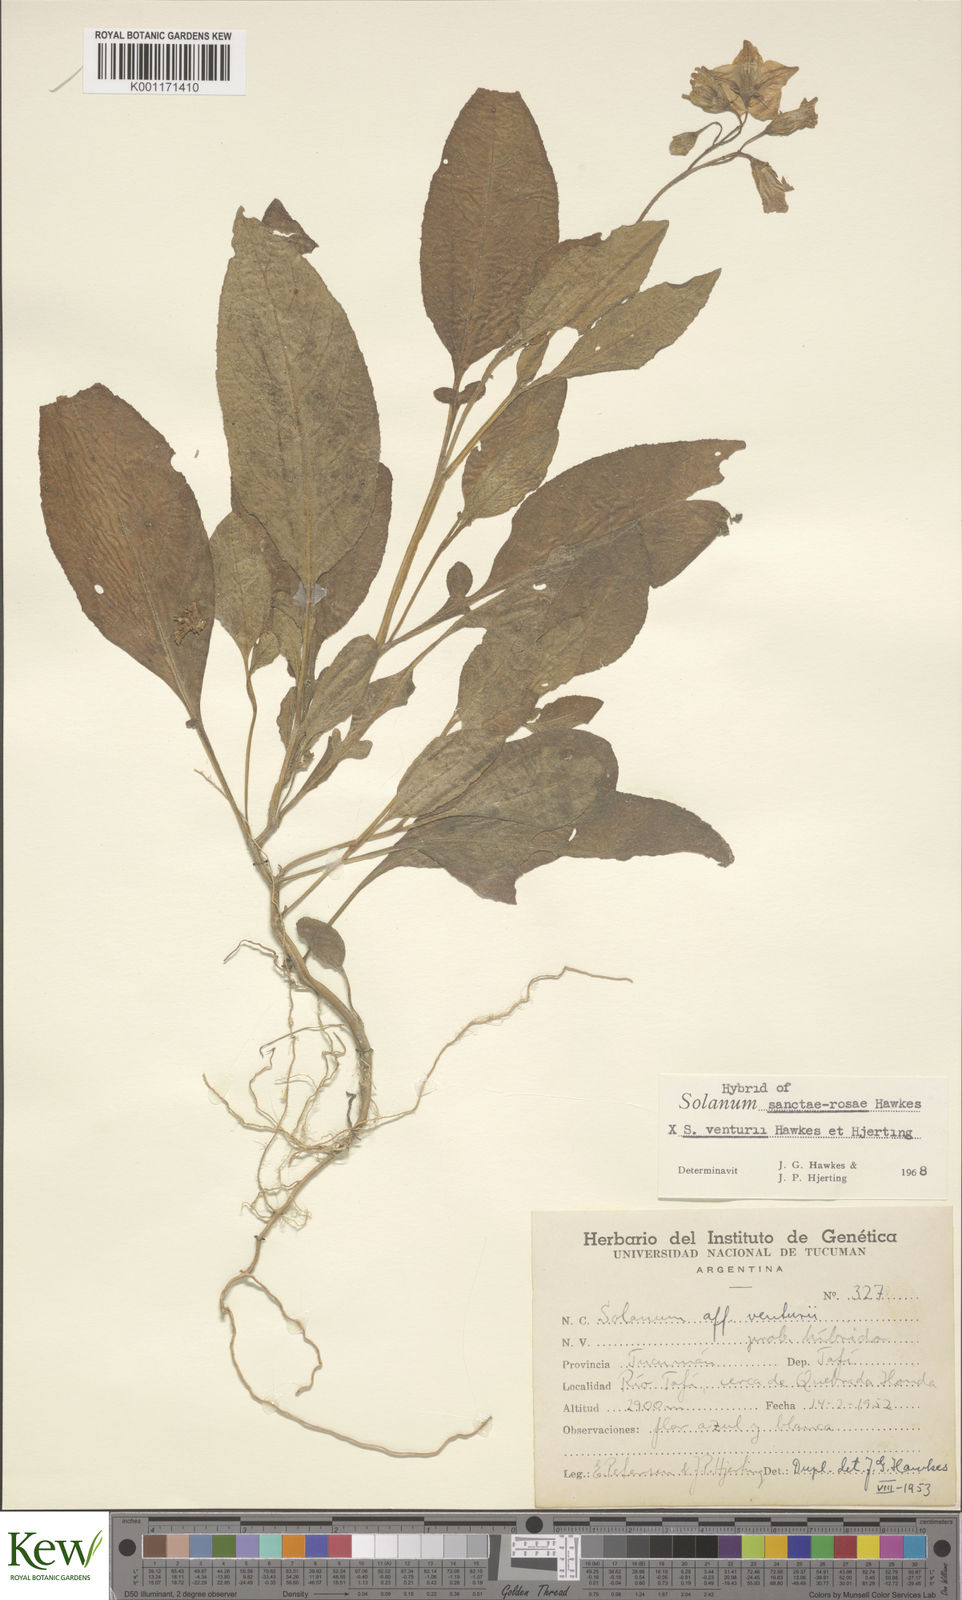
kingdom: Plantae
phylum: Tracheophyta
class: Magnoliopsida
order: Solanales
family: Solanaceae
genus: Solanum
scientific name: Solanum boliviense
